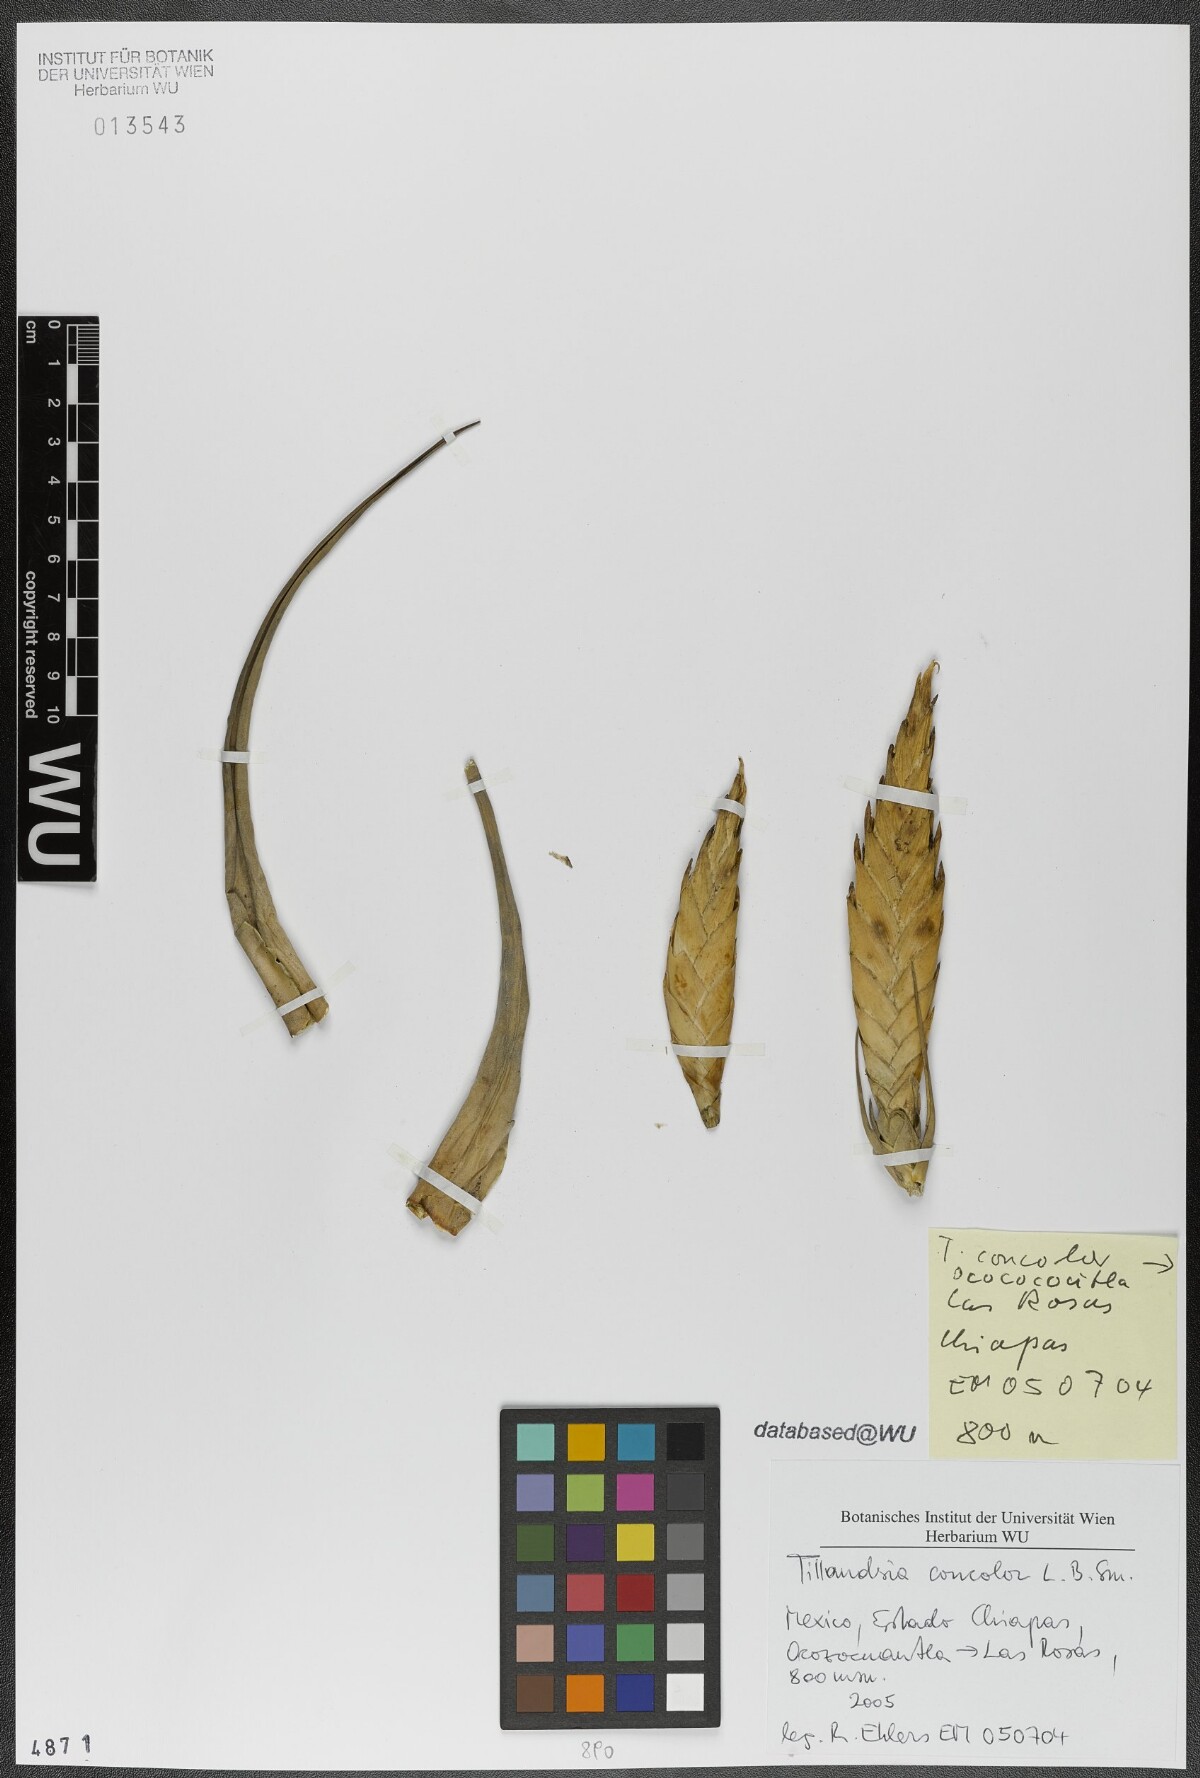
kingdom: Plantae
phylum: Tracheophyta
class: Liliopsida
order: Poales
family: Bromeliaceae
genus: Tillandsia
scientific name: Tillandsia concolor
